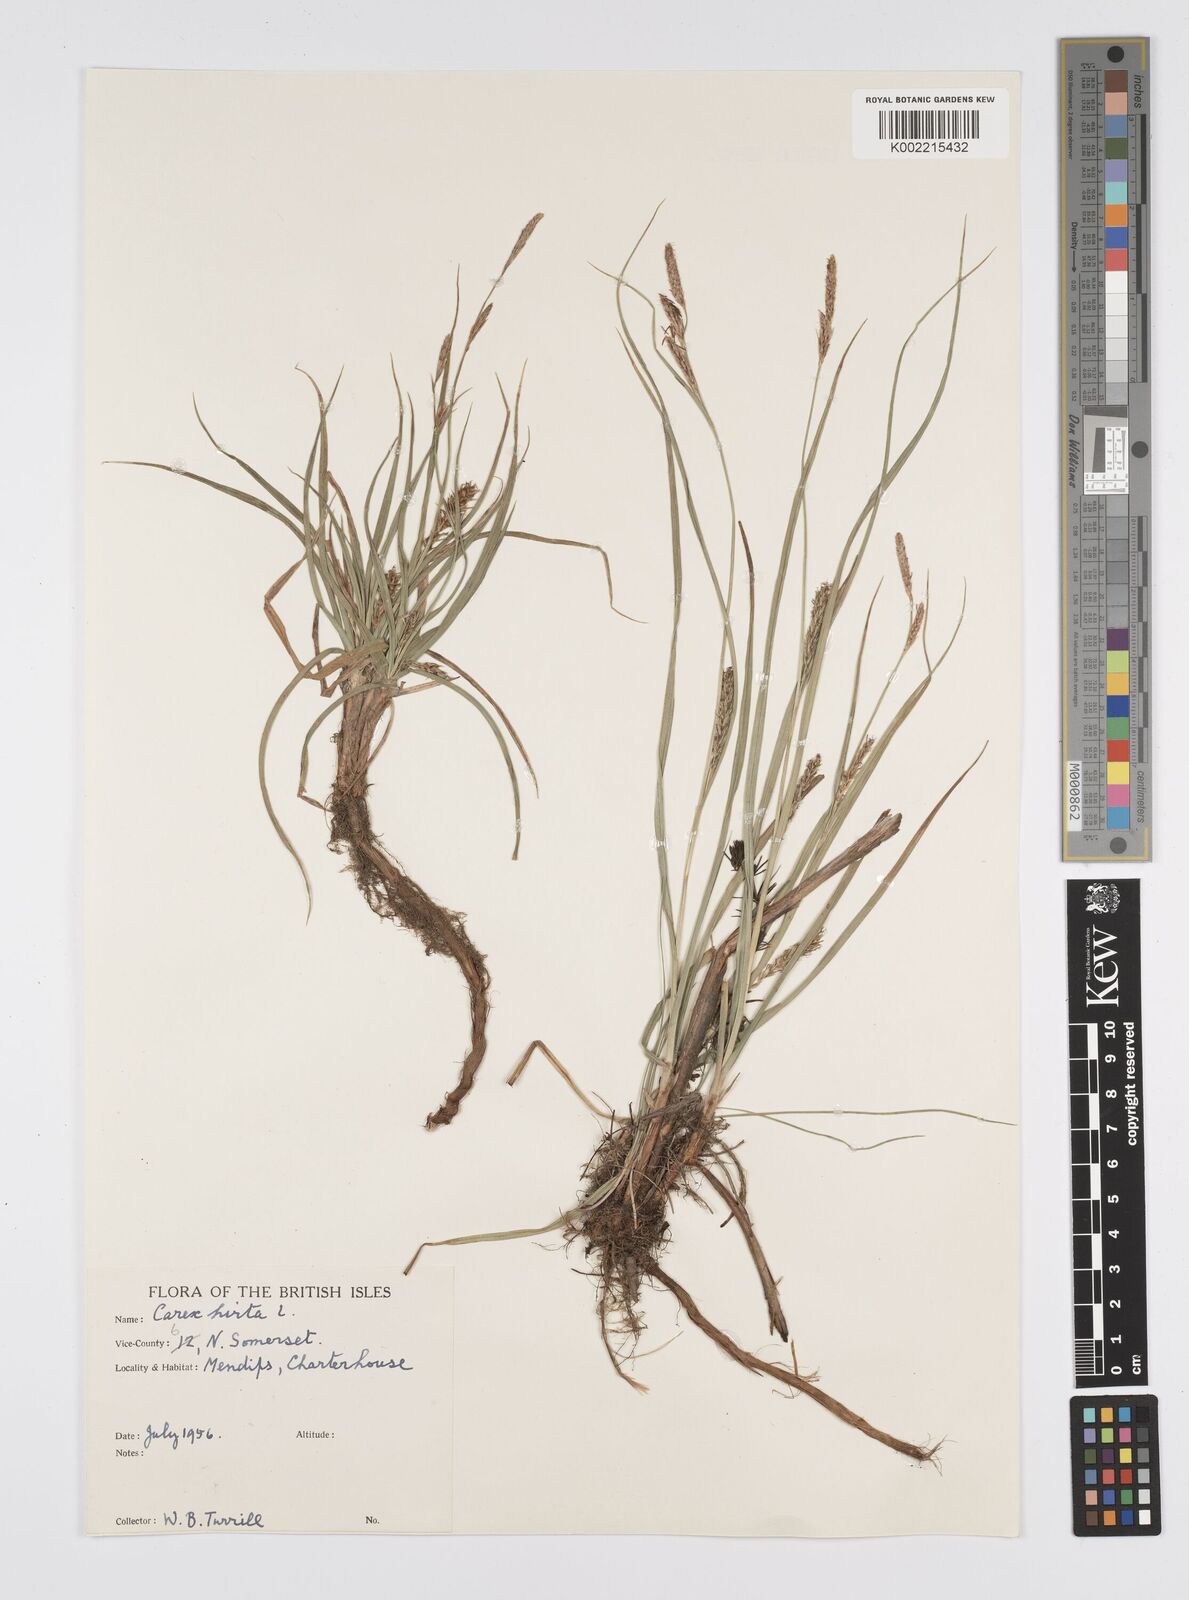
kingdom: Plantae
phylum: Tracheophyta
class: Liliopsida
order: Poales
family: Cyperaceae
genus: Carex
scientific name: Carex hirta
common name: Hairy sedge
